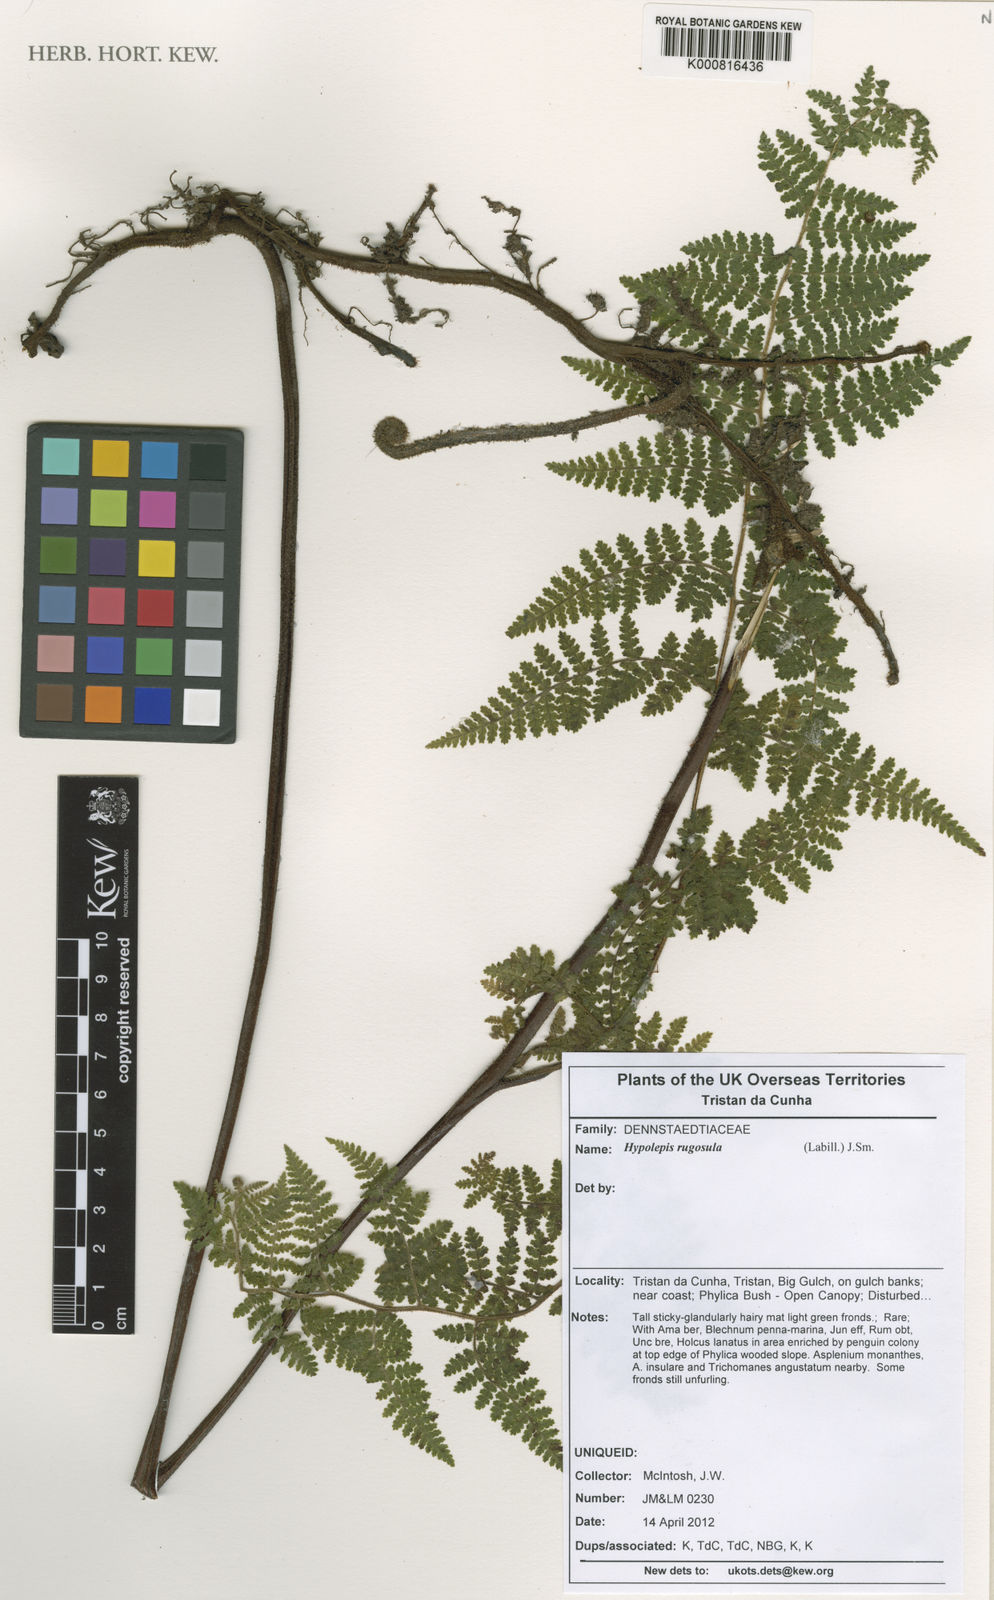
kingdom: Plantae
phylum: Tracheophyta
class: Polypodiopsida
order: Polypodiales
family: Dennstaedtiaceae
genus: Hypolepis
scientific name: Hypolepis rugosula
